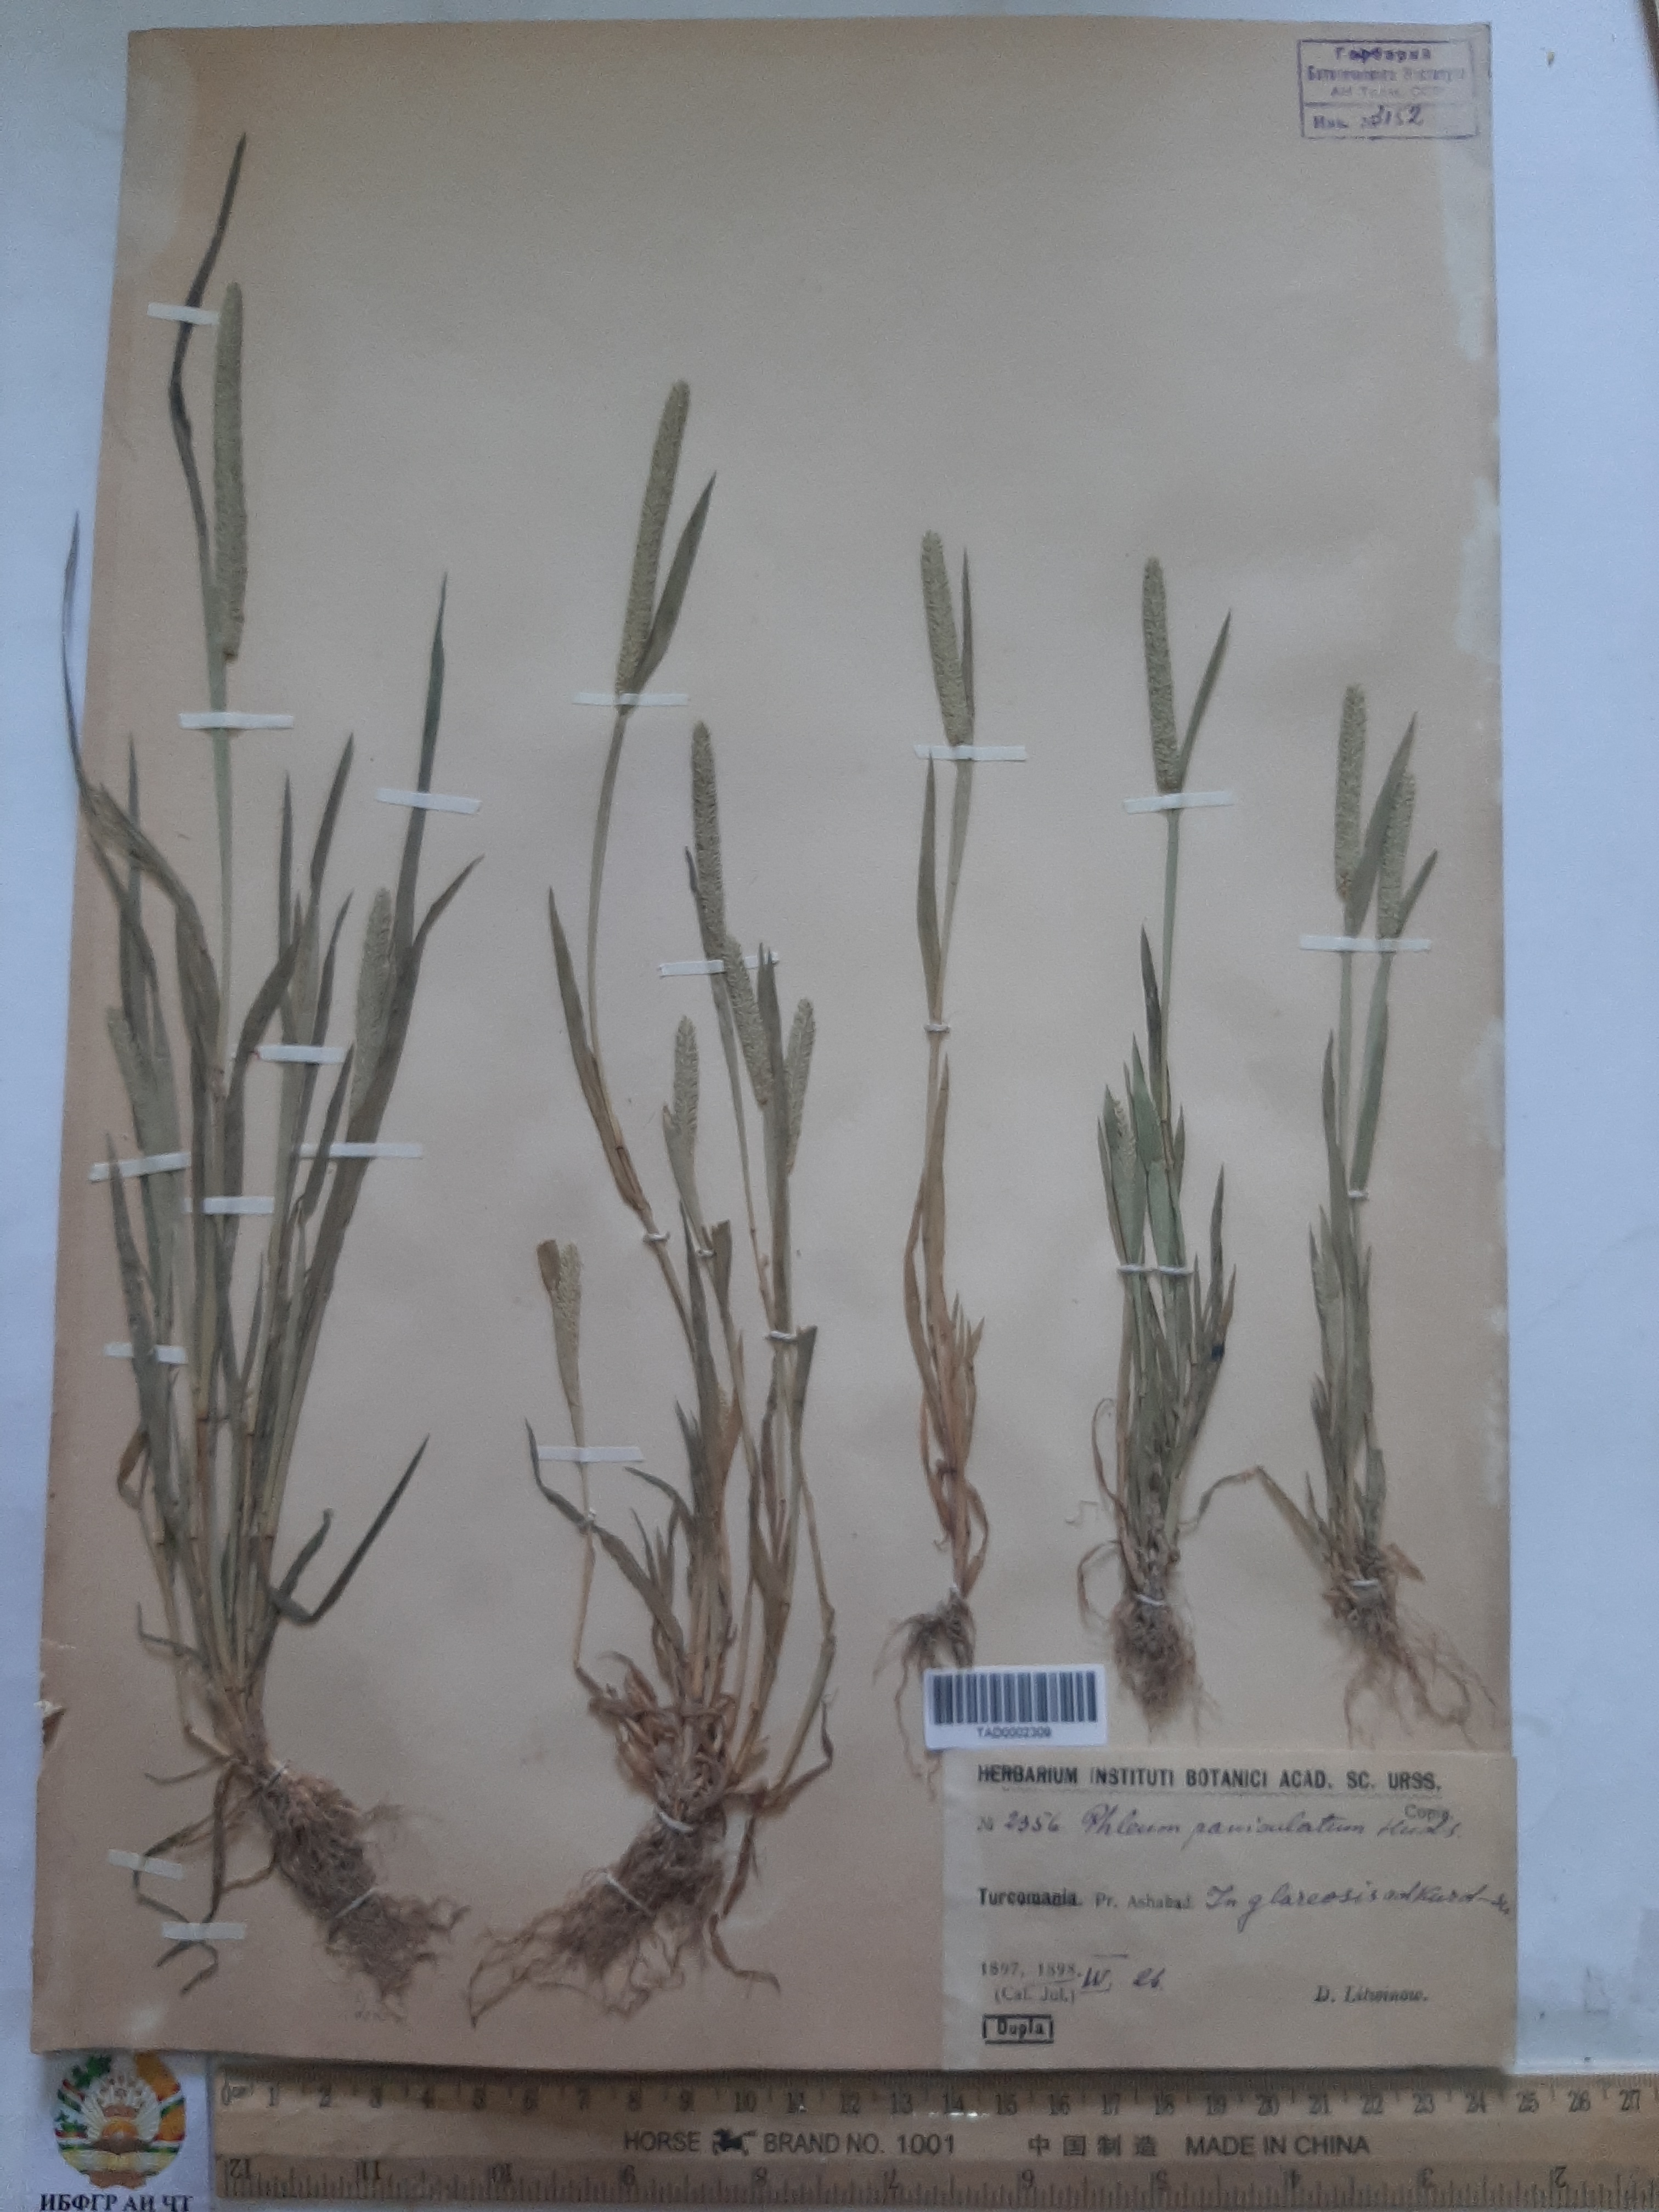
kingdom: Plantae
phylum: Tracheophyta
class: Liliopsida
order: Poales
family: Poaceae
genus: Phleum
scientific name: Phleum paniculatum
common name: British timothy
